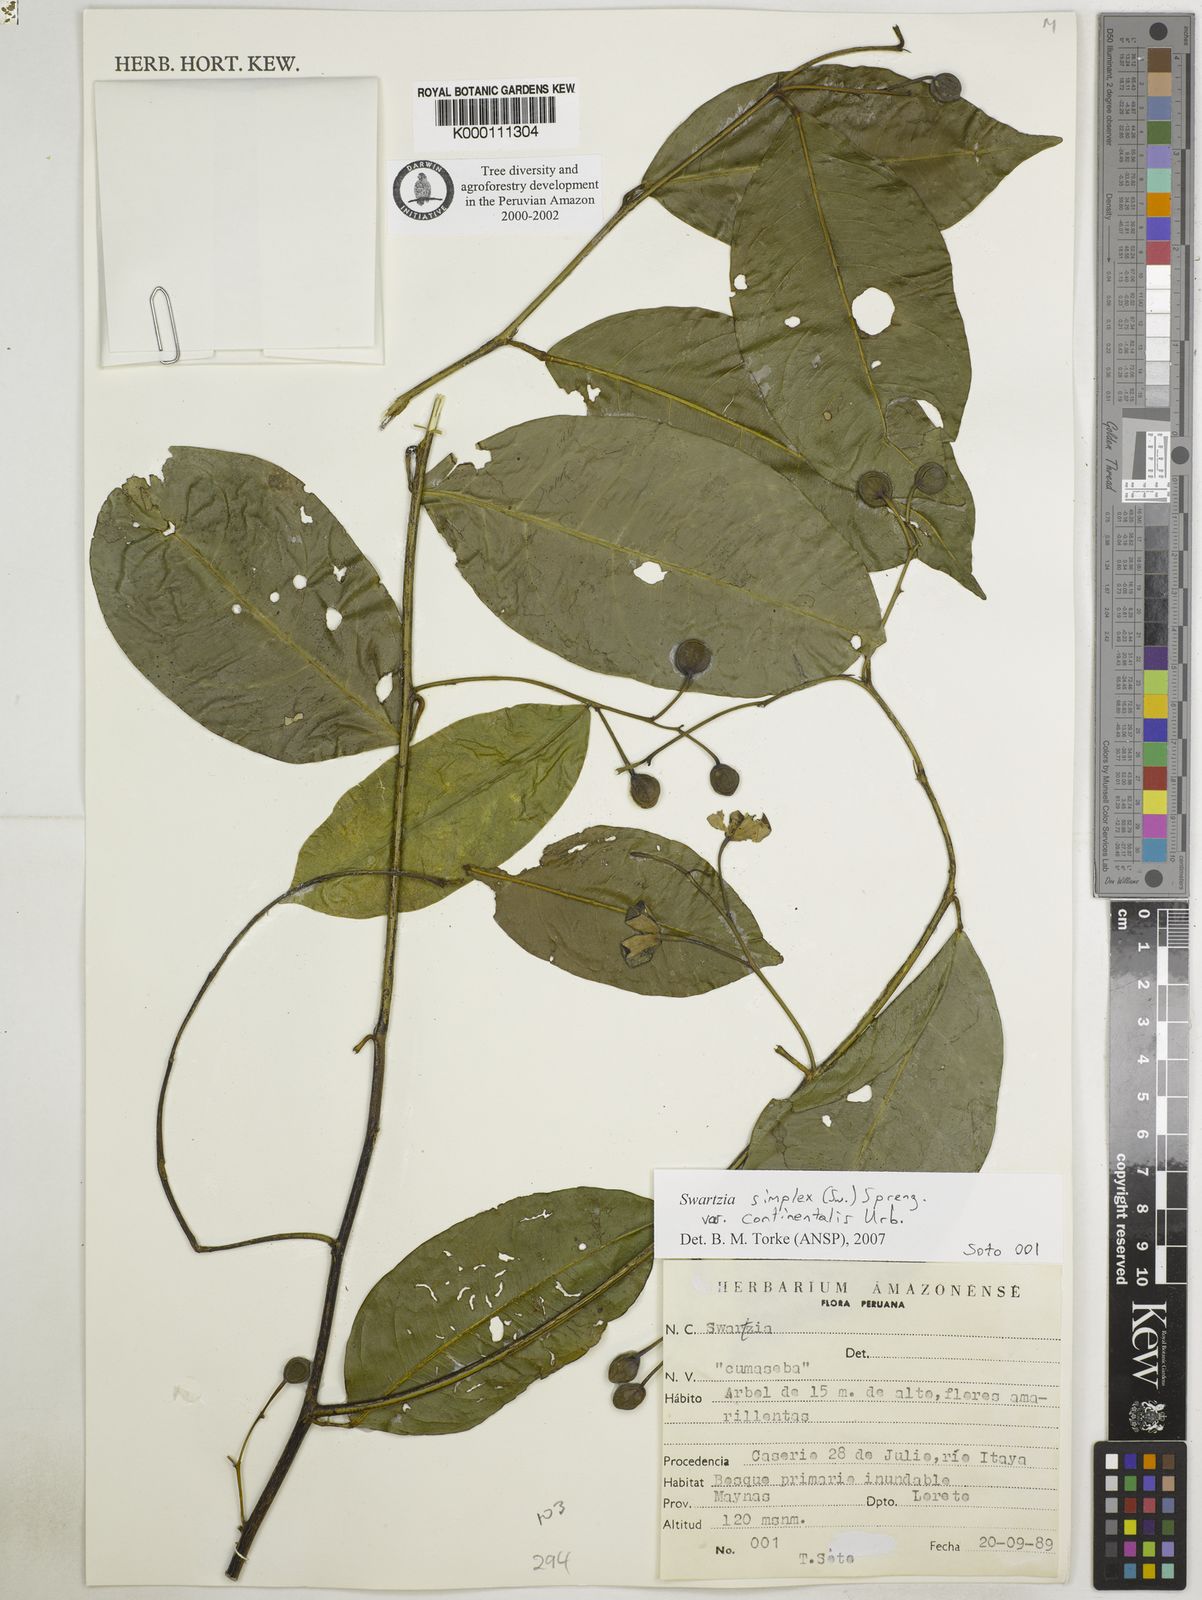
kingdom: Plantae
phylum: Tracheophyta
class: Magnoliopsida
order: Fabales
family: Fabaceae
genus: Swartzia
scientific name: Swartzia simplex
